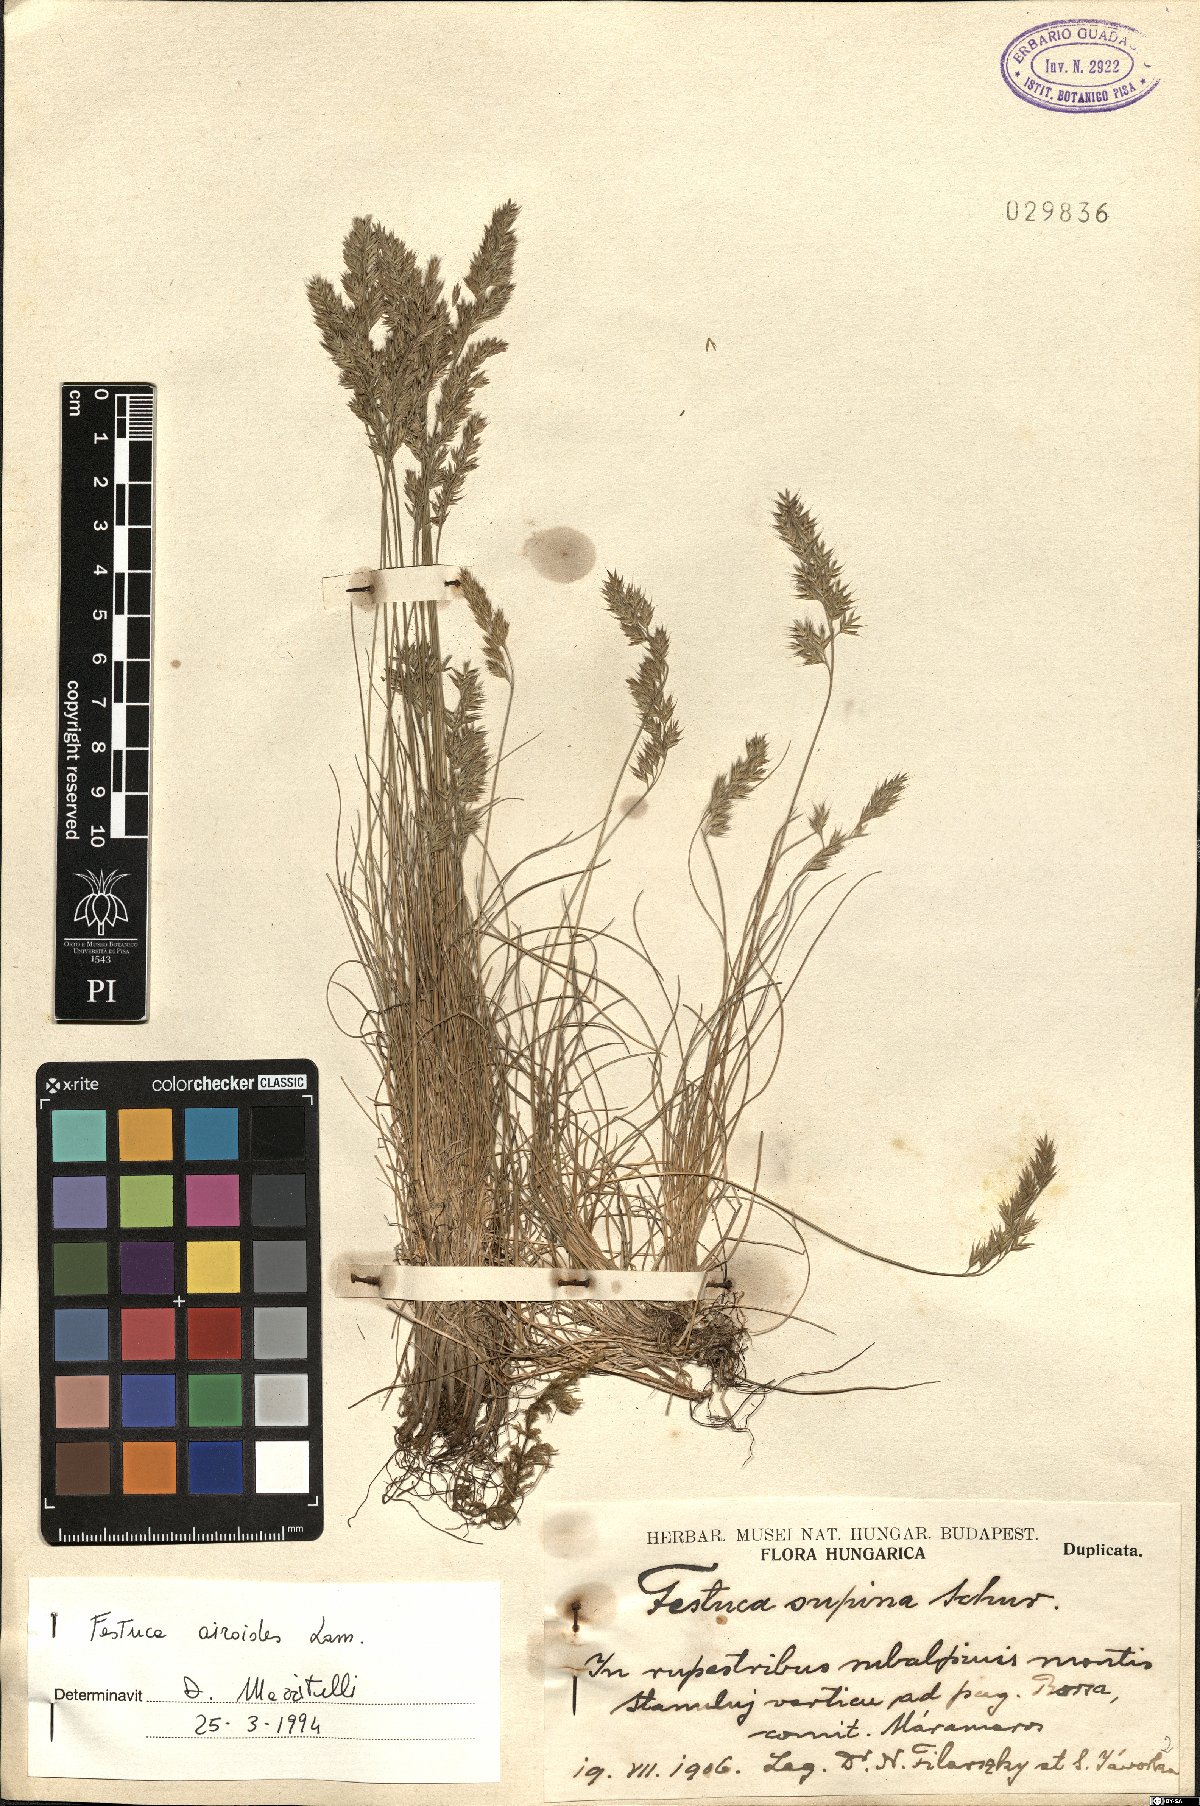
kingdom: Plantae
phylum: Tracheophyta
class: Liliopsida
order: Poales
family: Poaceae
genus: Festuca
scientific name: Festuca airoides
